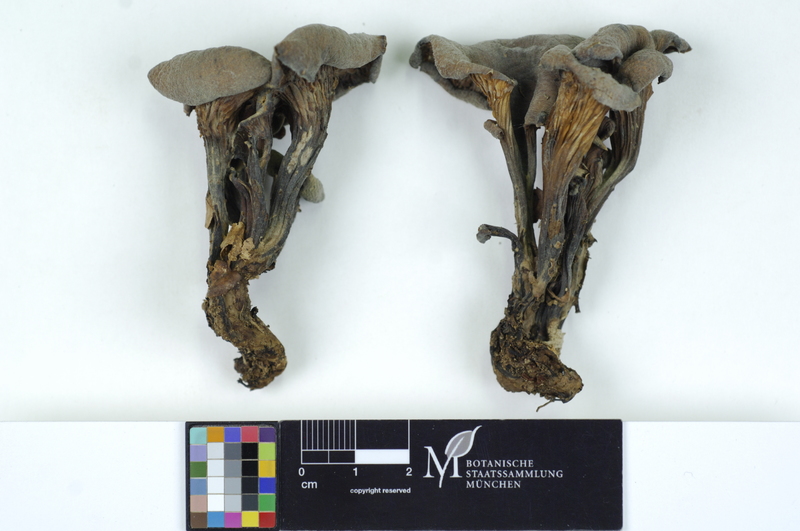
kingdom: Fungi
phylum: Basidiomycota
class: Agaricomycetes
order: Russulales
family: Auriscalpiaceae
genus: Lentinellus
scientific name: Lentinellus cochleatus
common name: Aniseed cockleshell
